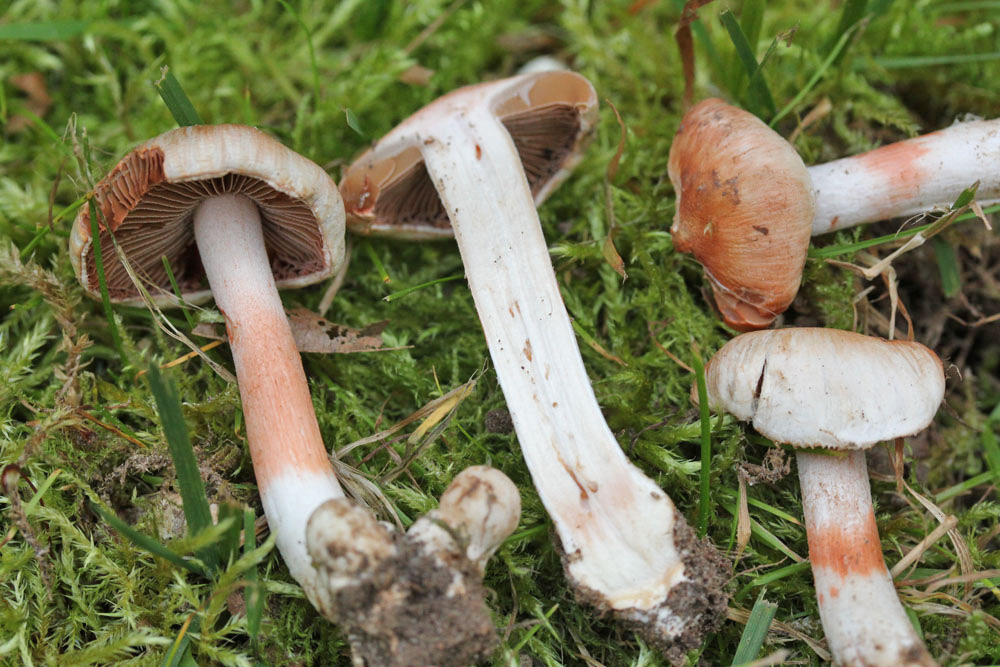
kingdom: Fungi
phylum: Basidiomycota
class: Agaricomycetes
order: Agaricales
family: Inocybaceae
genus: Inocybe
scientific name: Inocybe
